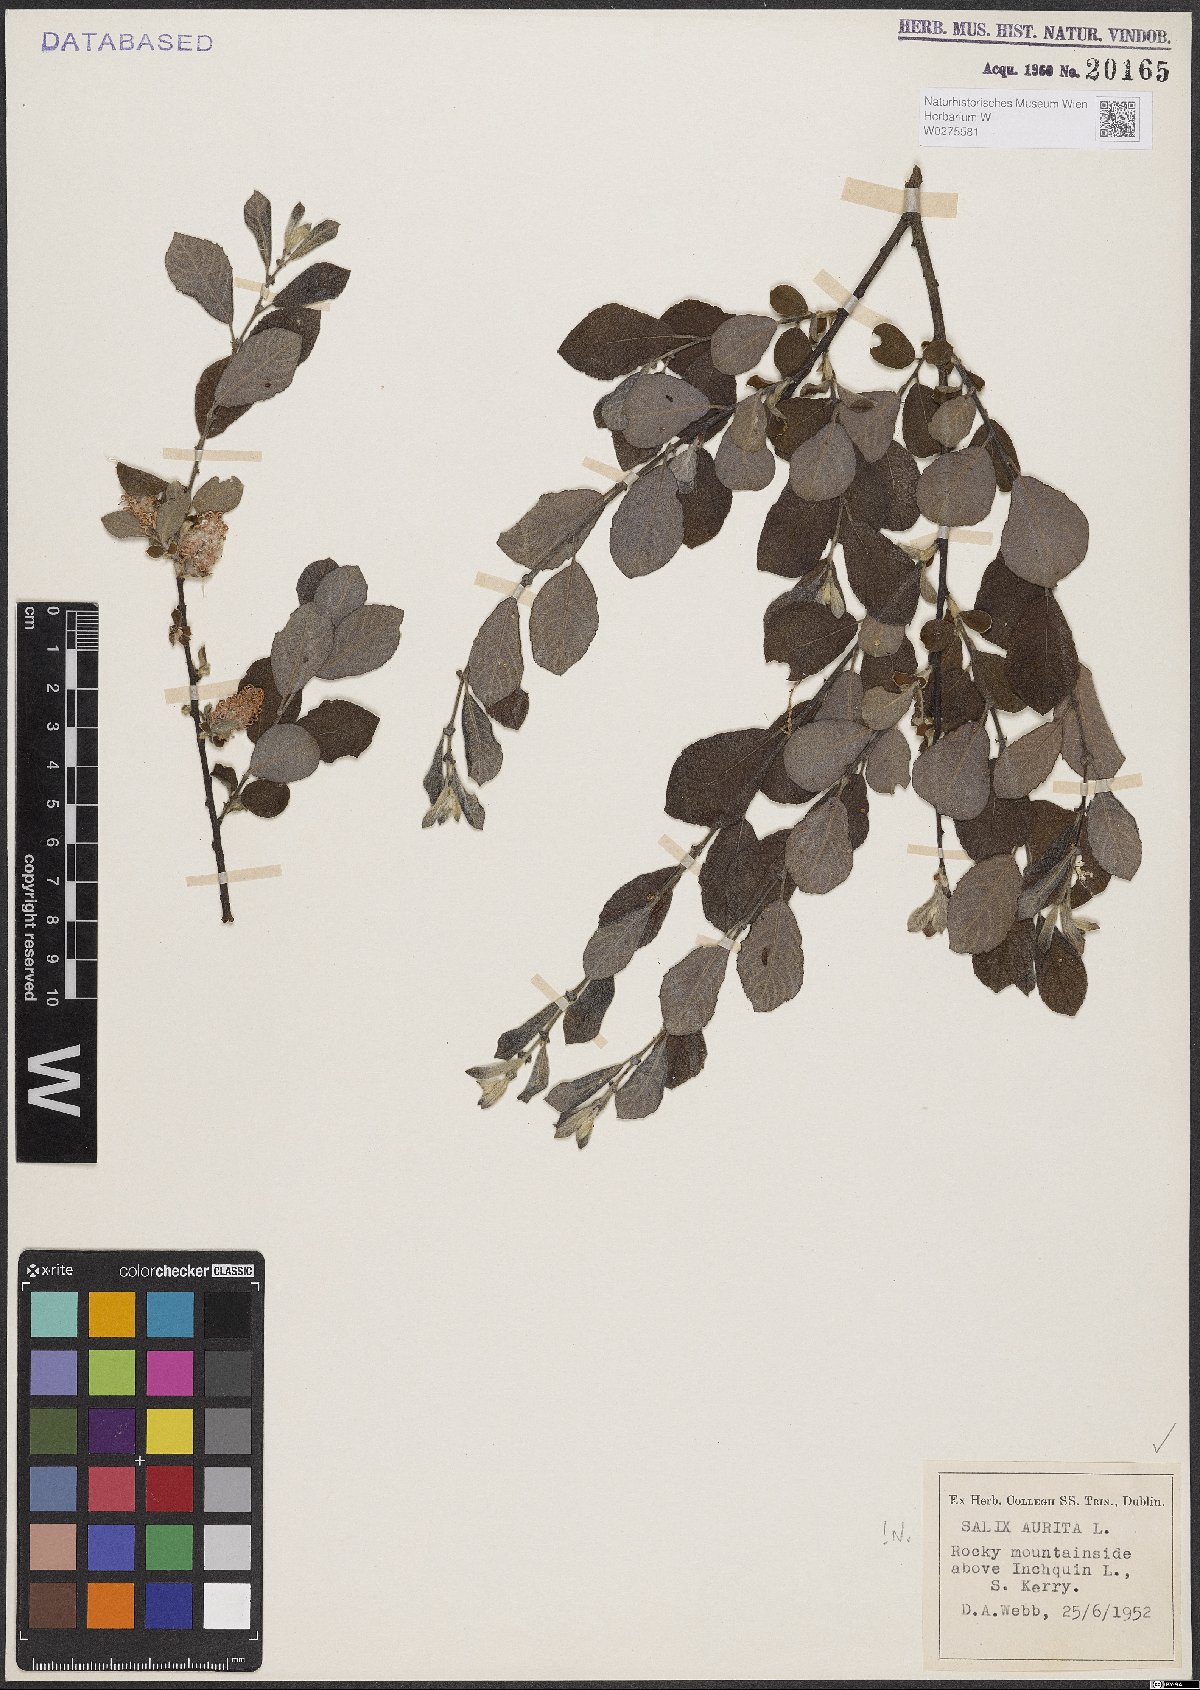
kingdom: Plantae
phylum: Tracheophyta
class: Magnoliopsida
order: Malpighiales
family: Salicaceae
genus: Salix
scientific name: Salix aurita
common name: Eared willow
